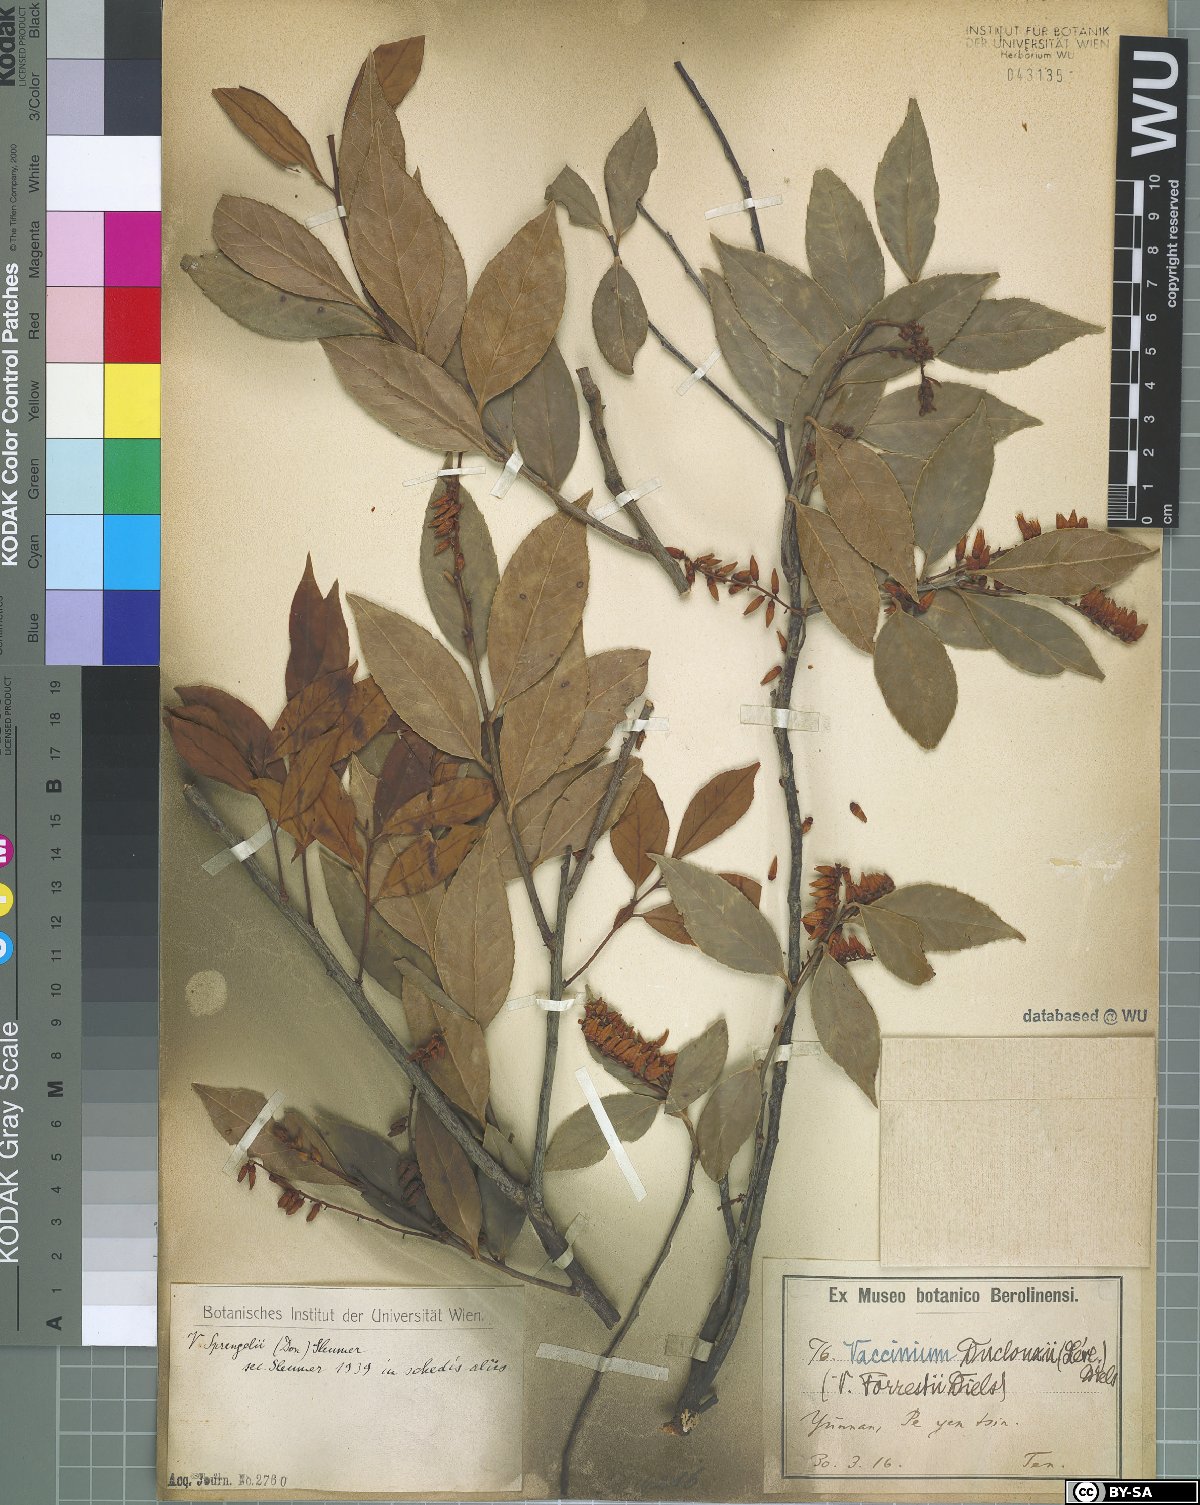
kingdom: Plantae
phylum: Tracheophyta
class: Magnoliopsida
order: Ericales
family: Ericaceae
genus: Vaccinium
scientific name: Vaccinium sprengelii
